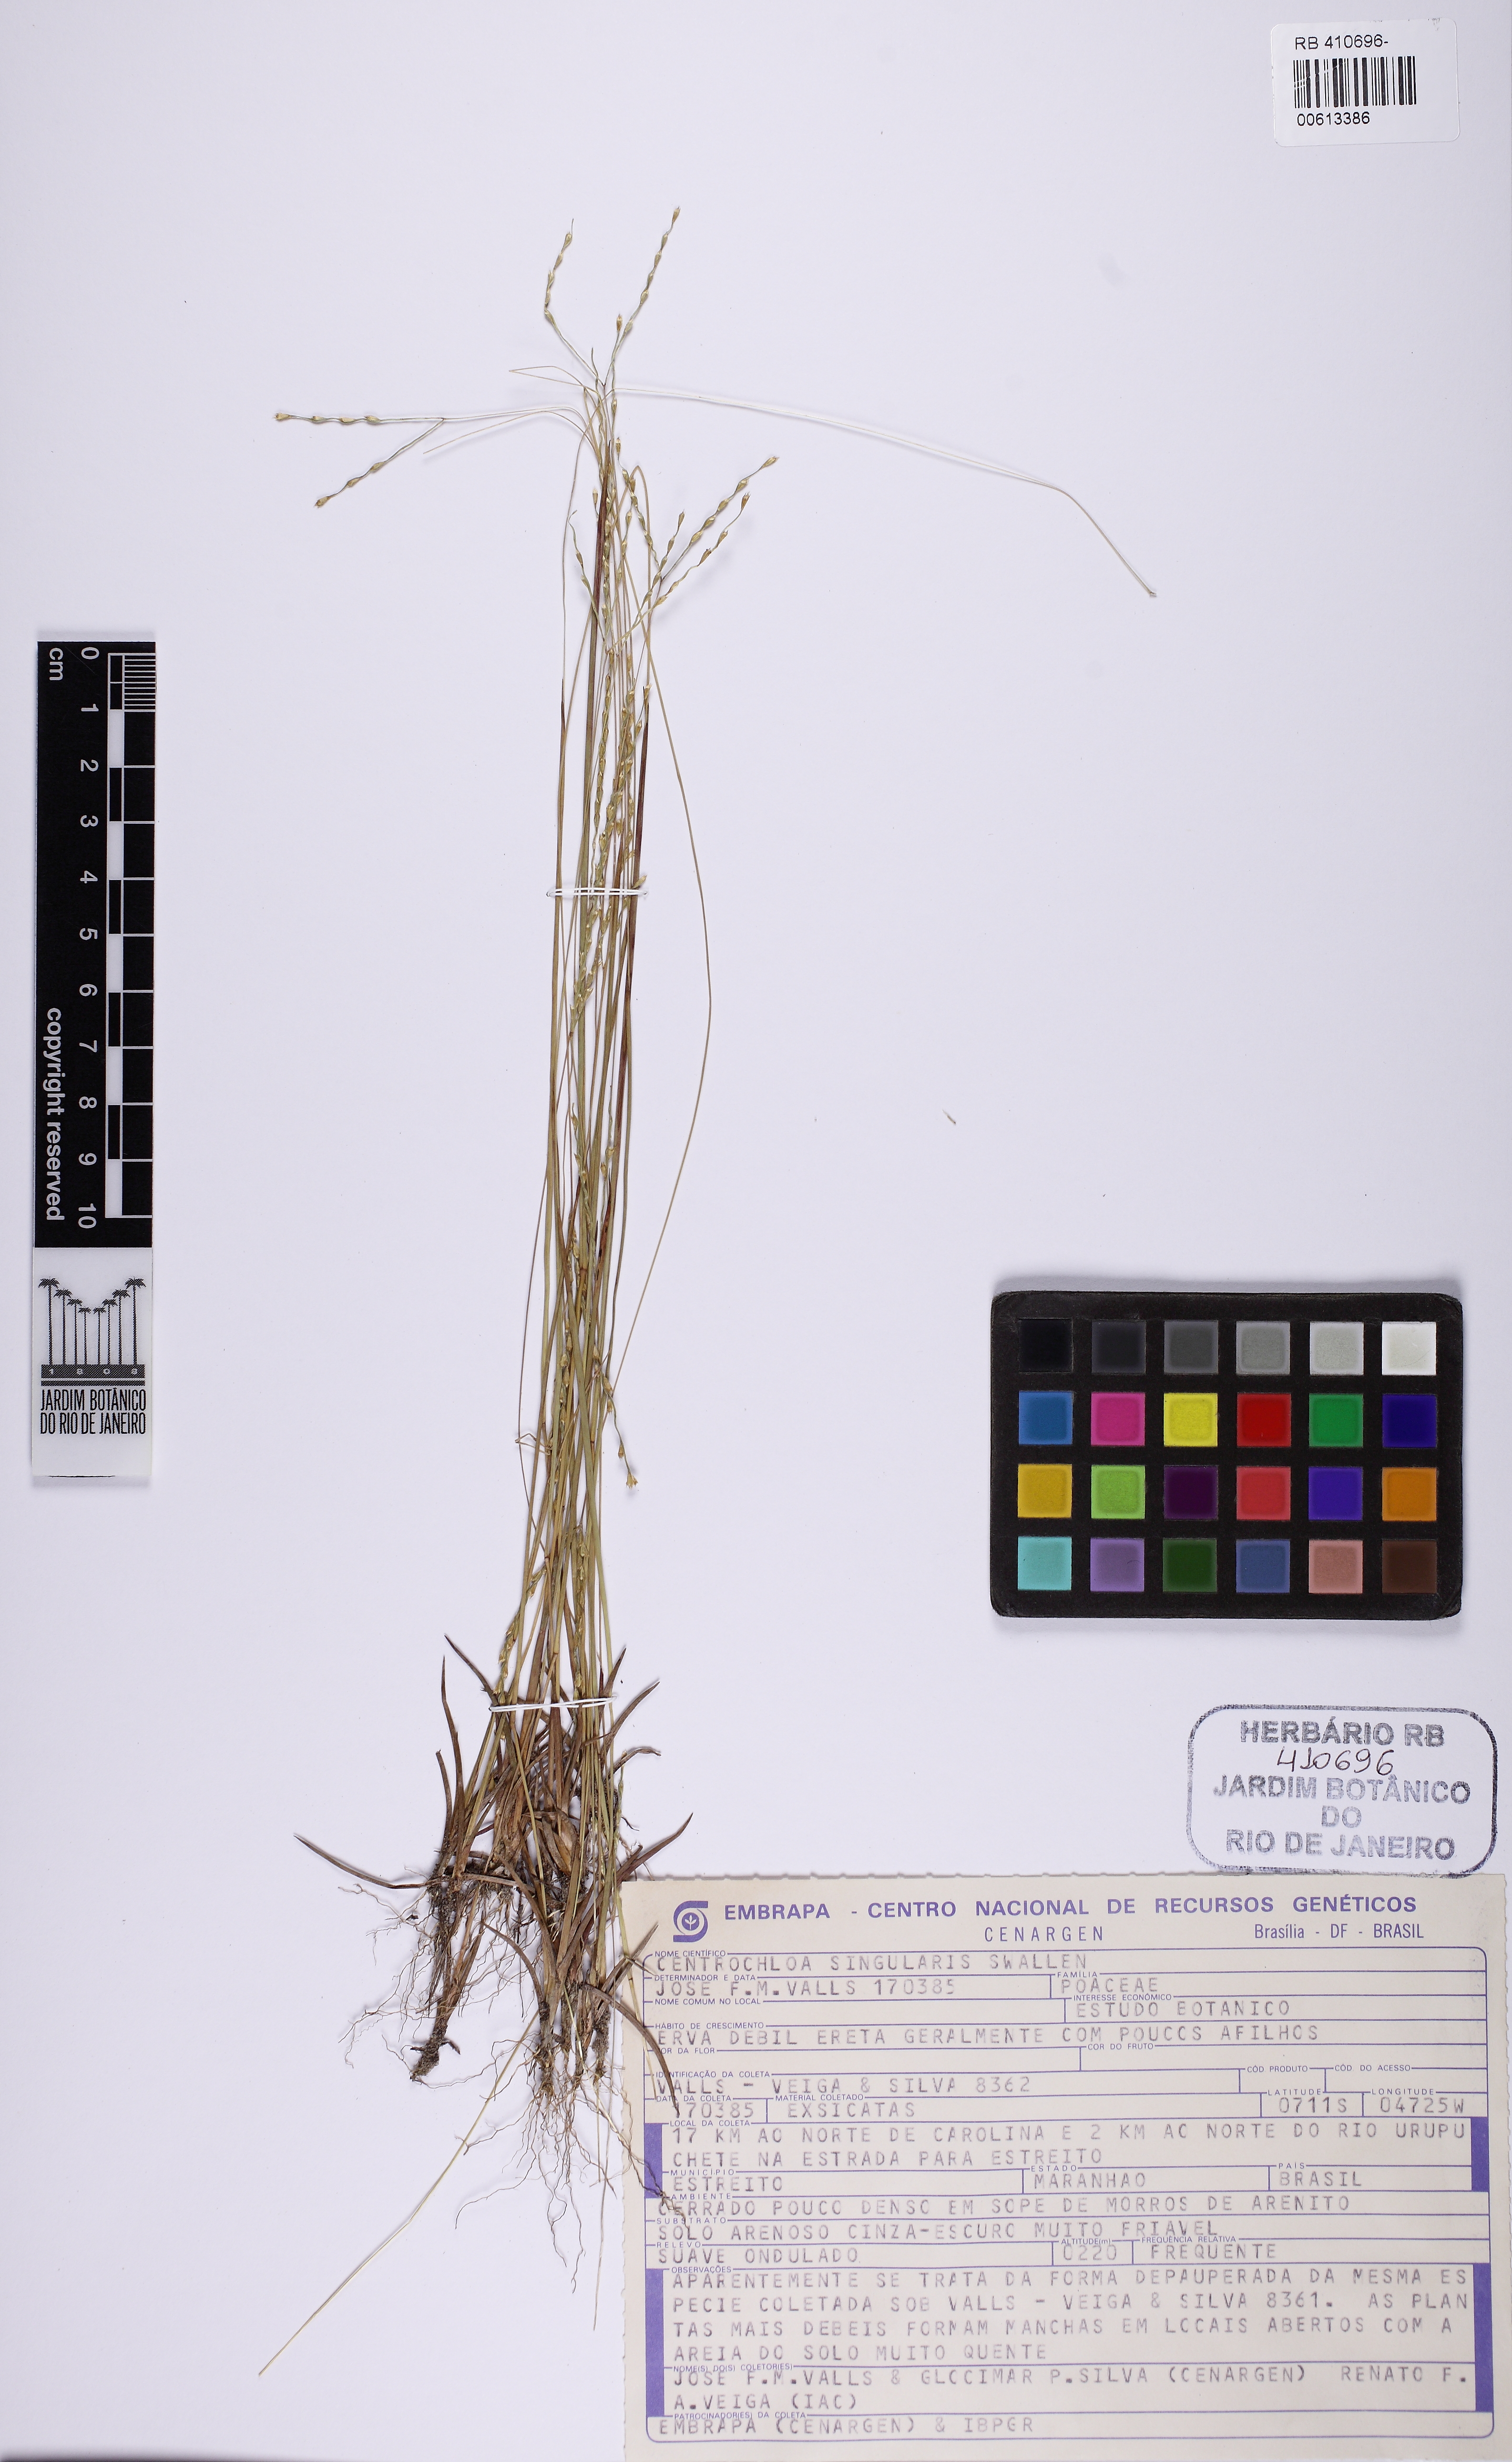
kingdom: Plantae
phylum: Tracheophyta
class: Liliopsida
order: Poales
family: Poaceae
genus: Axonopus
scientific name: Axonopus singularis
